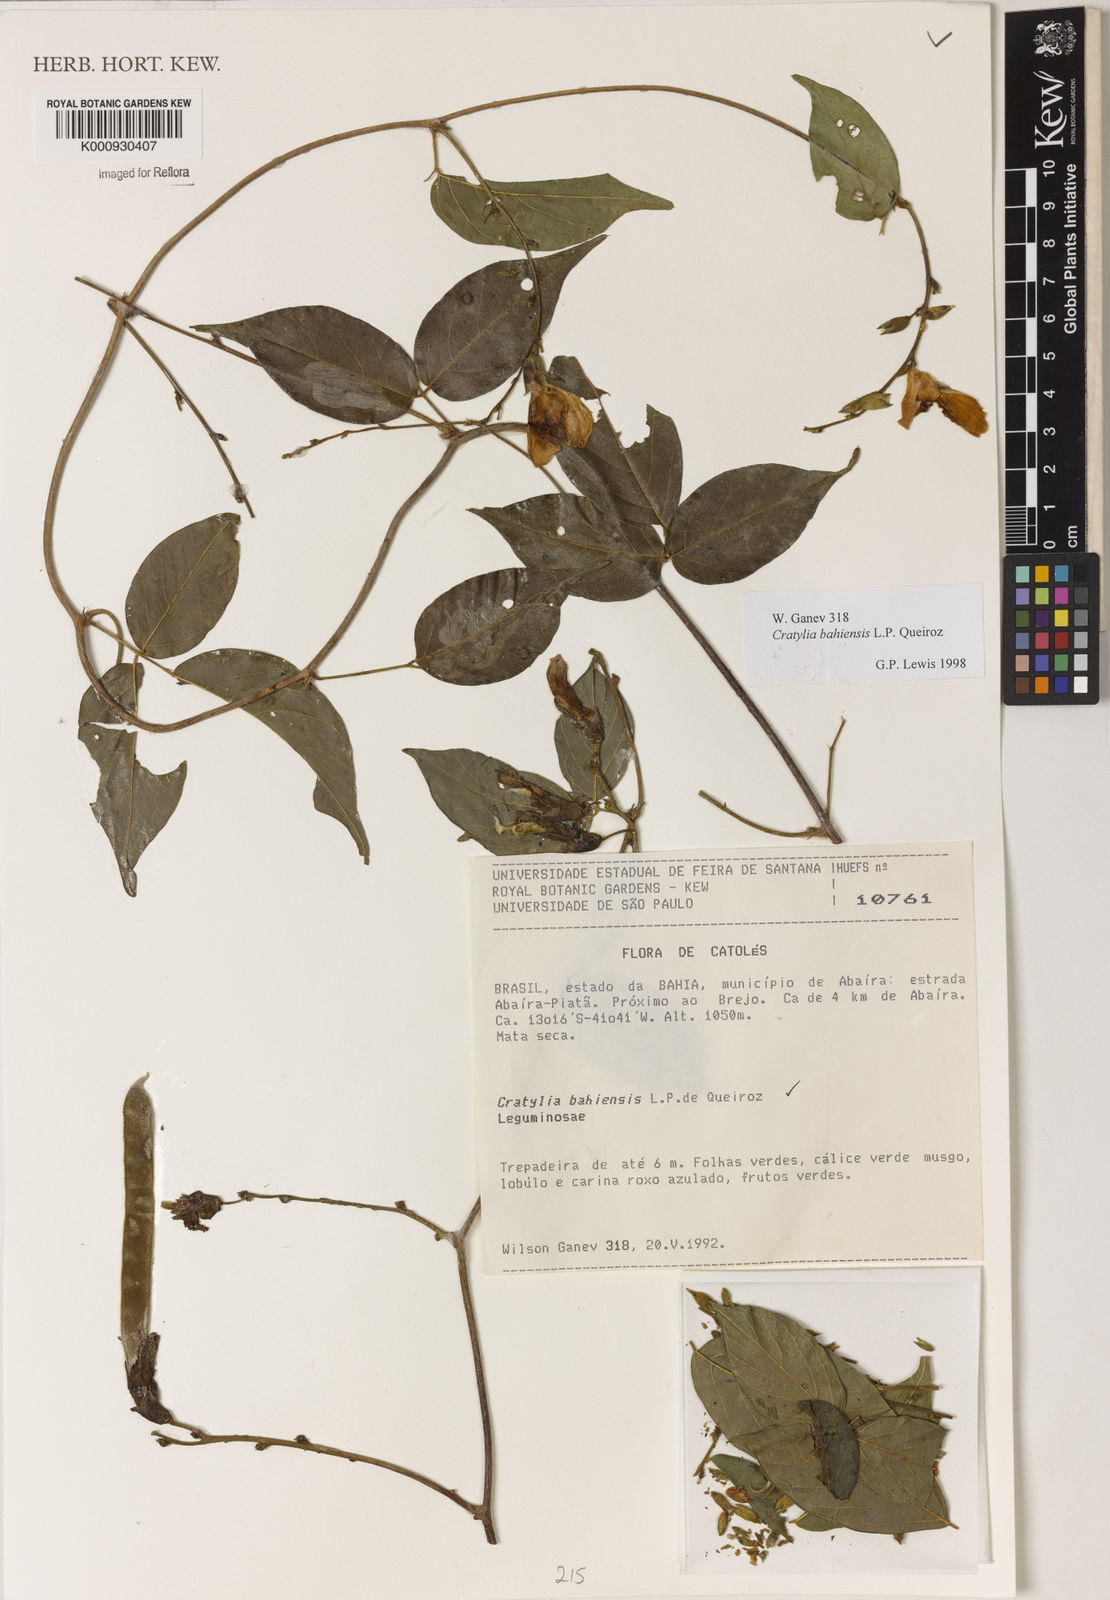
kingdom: Plantae
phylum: Tracheophyta
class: Magnoliopsida
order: Fabales
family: Fabaceae
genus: Cratylia
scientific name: Cratylia bahiensis
